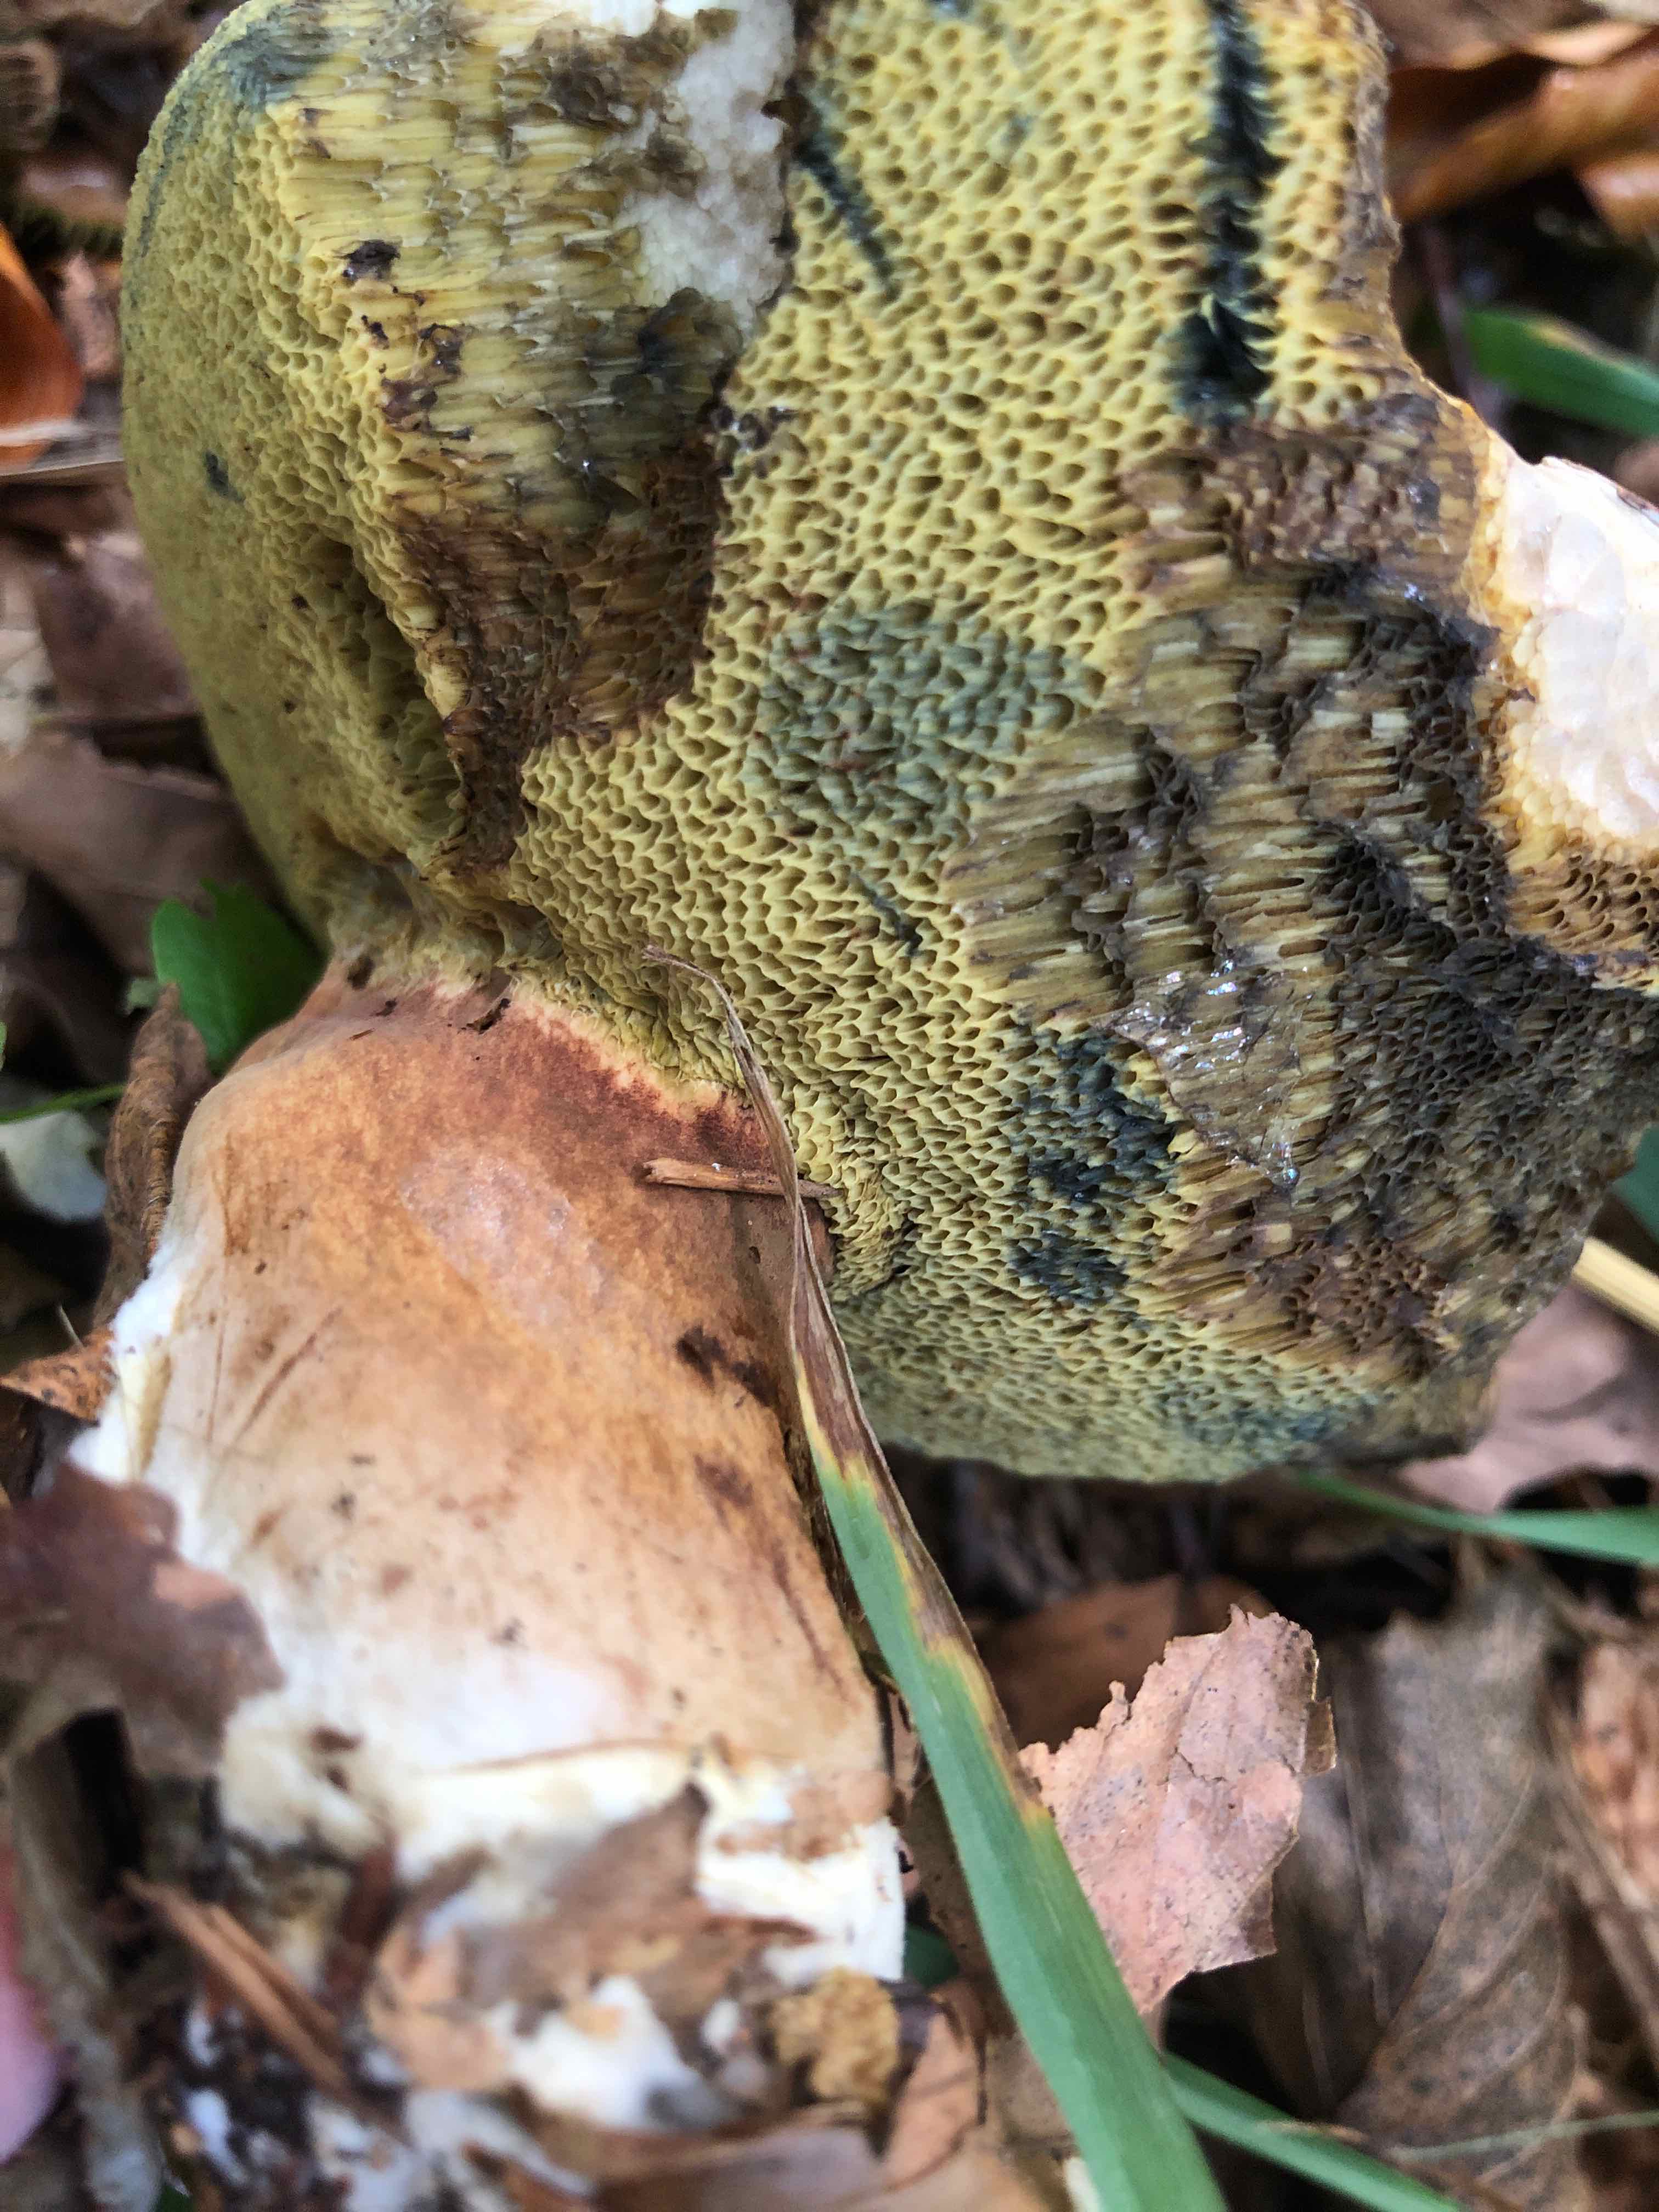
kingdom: Fungi
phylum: Basidiomycota
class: Agaricomycetes
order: Boletales
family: Boletaceae
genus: Imleria
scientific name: Imleria badia
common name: brunstokket rørhat
